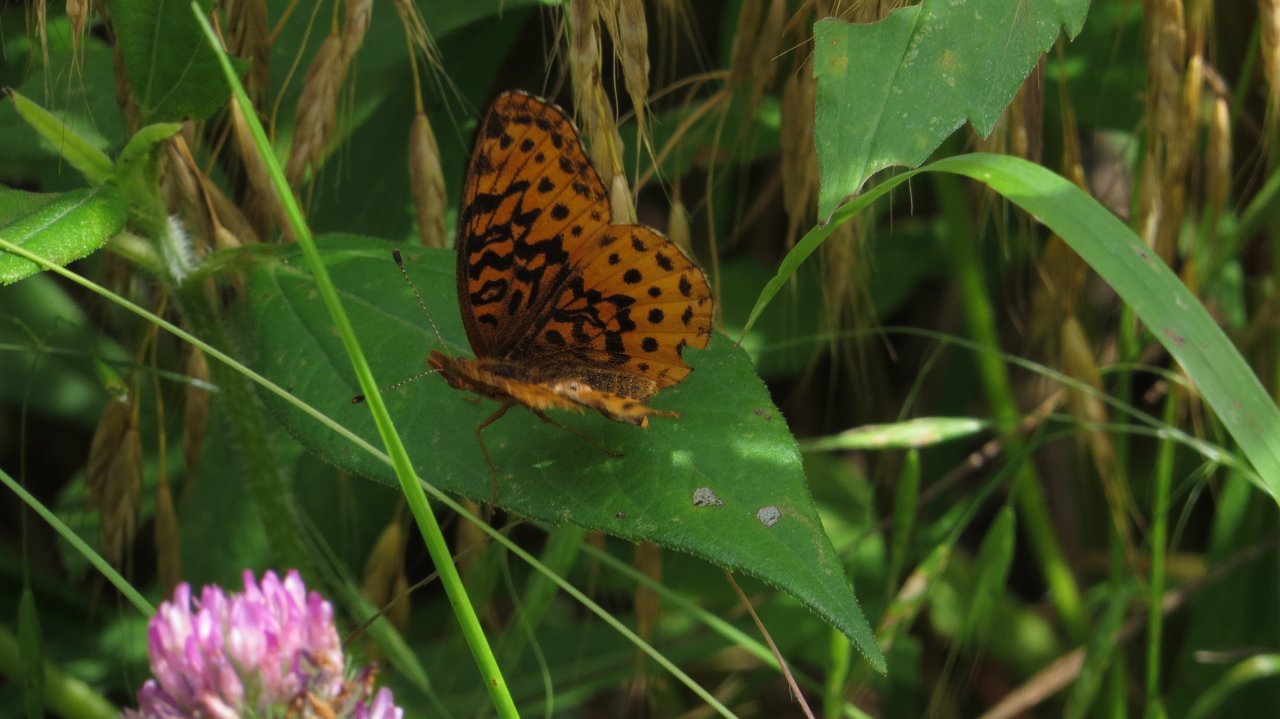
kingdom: Animalia
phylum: Arthropoda
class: Insecta
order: Lepidoptera
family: Nymphalidae
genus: Clossiana
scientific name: Clossiana toddi
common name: Meadow Fritillary
